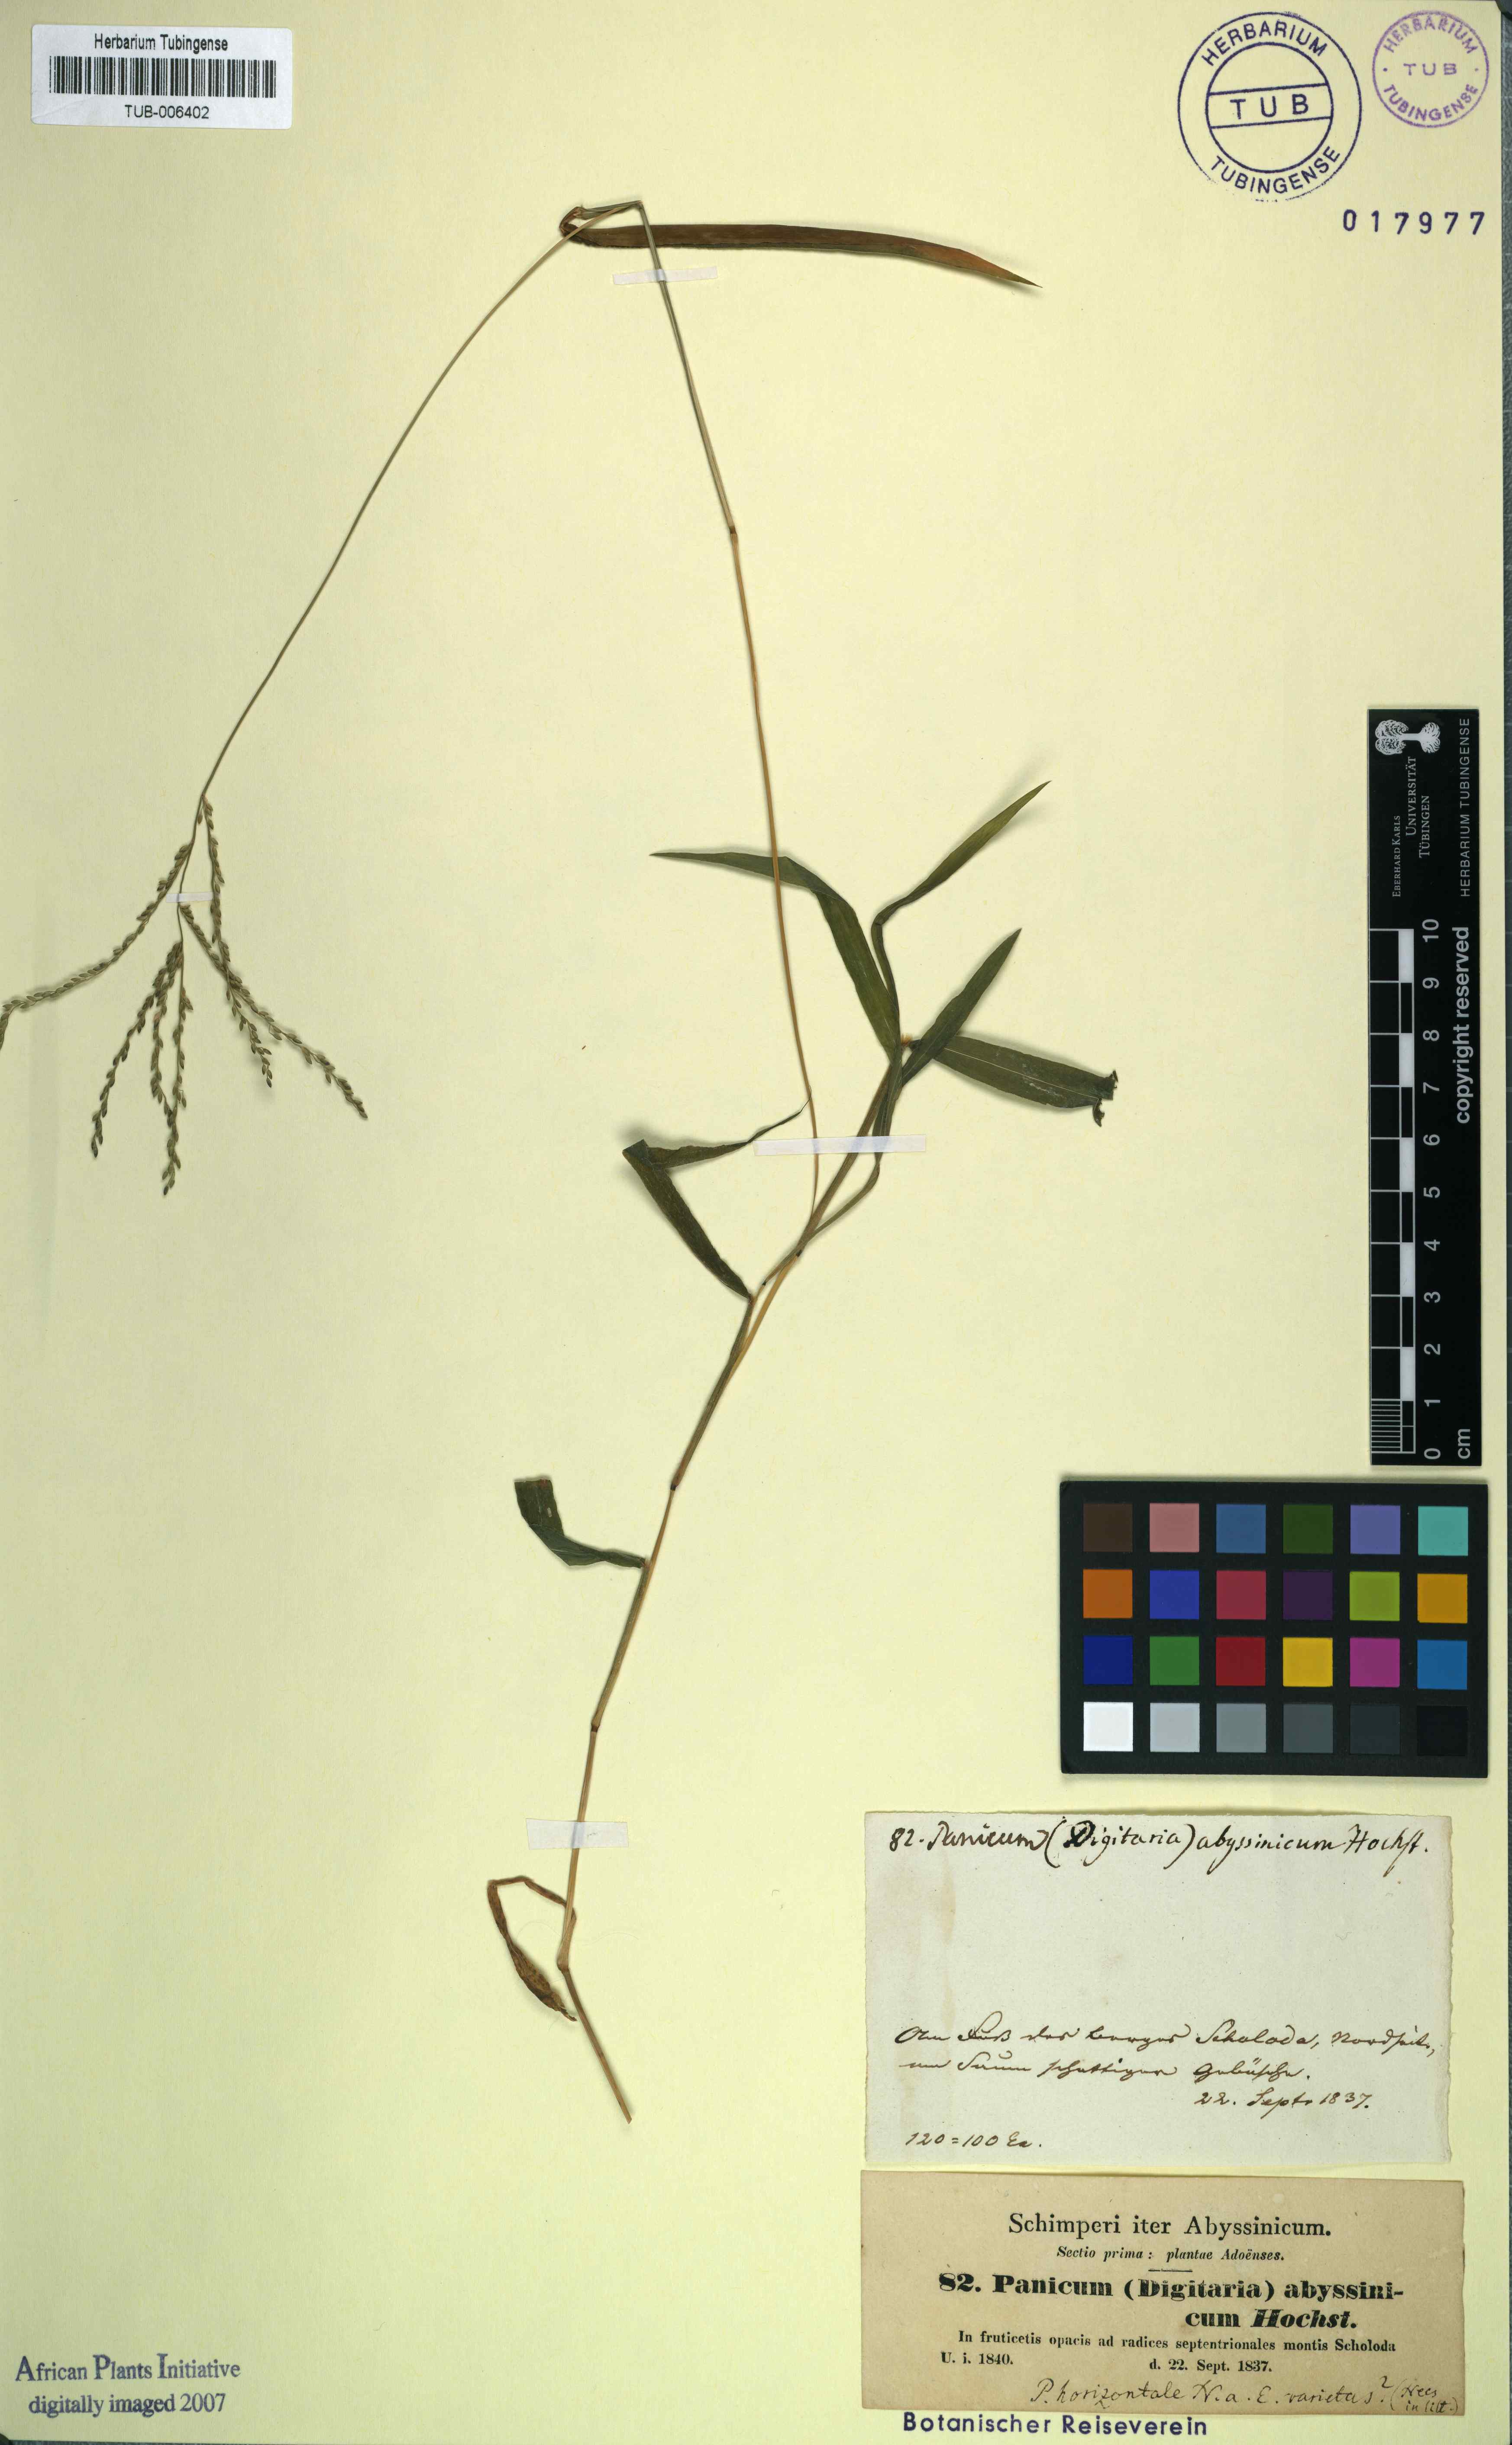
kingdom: Plantae
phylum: Tracheophyta
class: Liliopsida
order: Poales
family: Poaceae
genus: Panicum
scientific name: Panicum abyssinicum
